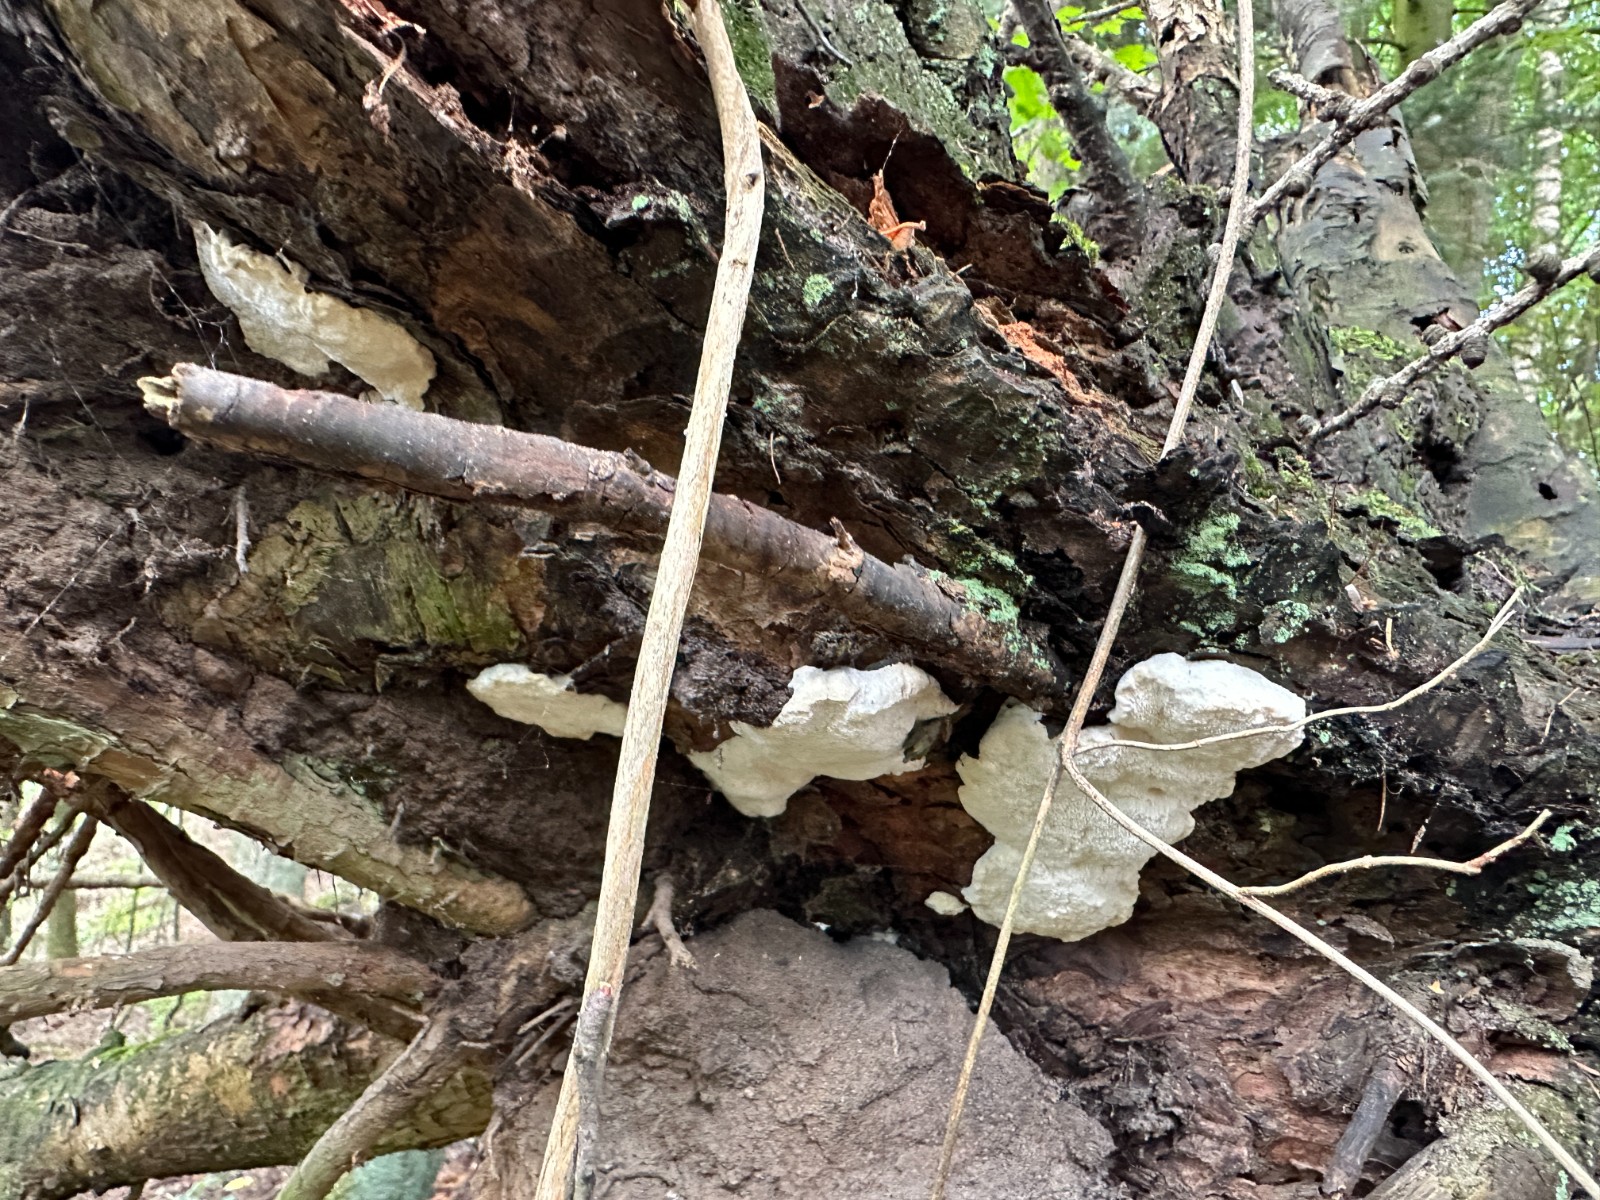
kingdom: Fungi
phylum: Basidiomycota
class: Agaricomycetes
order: Polyporales
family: Incrustoporiaceae
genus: Tyromyces
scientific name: Tyromyces lacteus
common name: mælkehvid kødporesvamp
